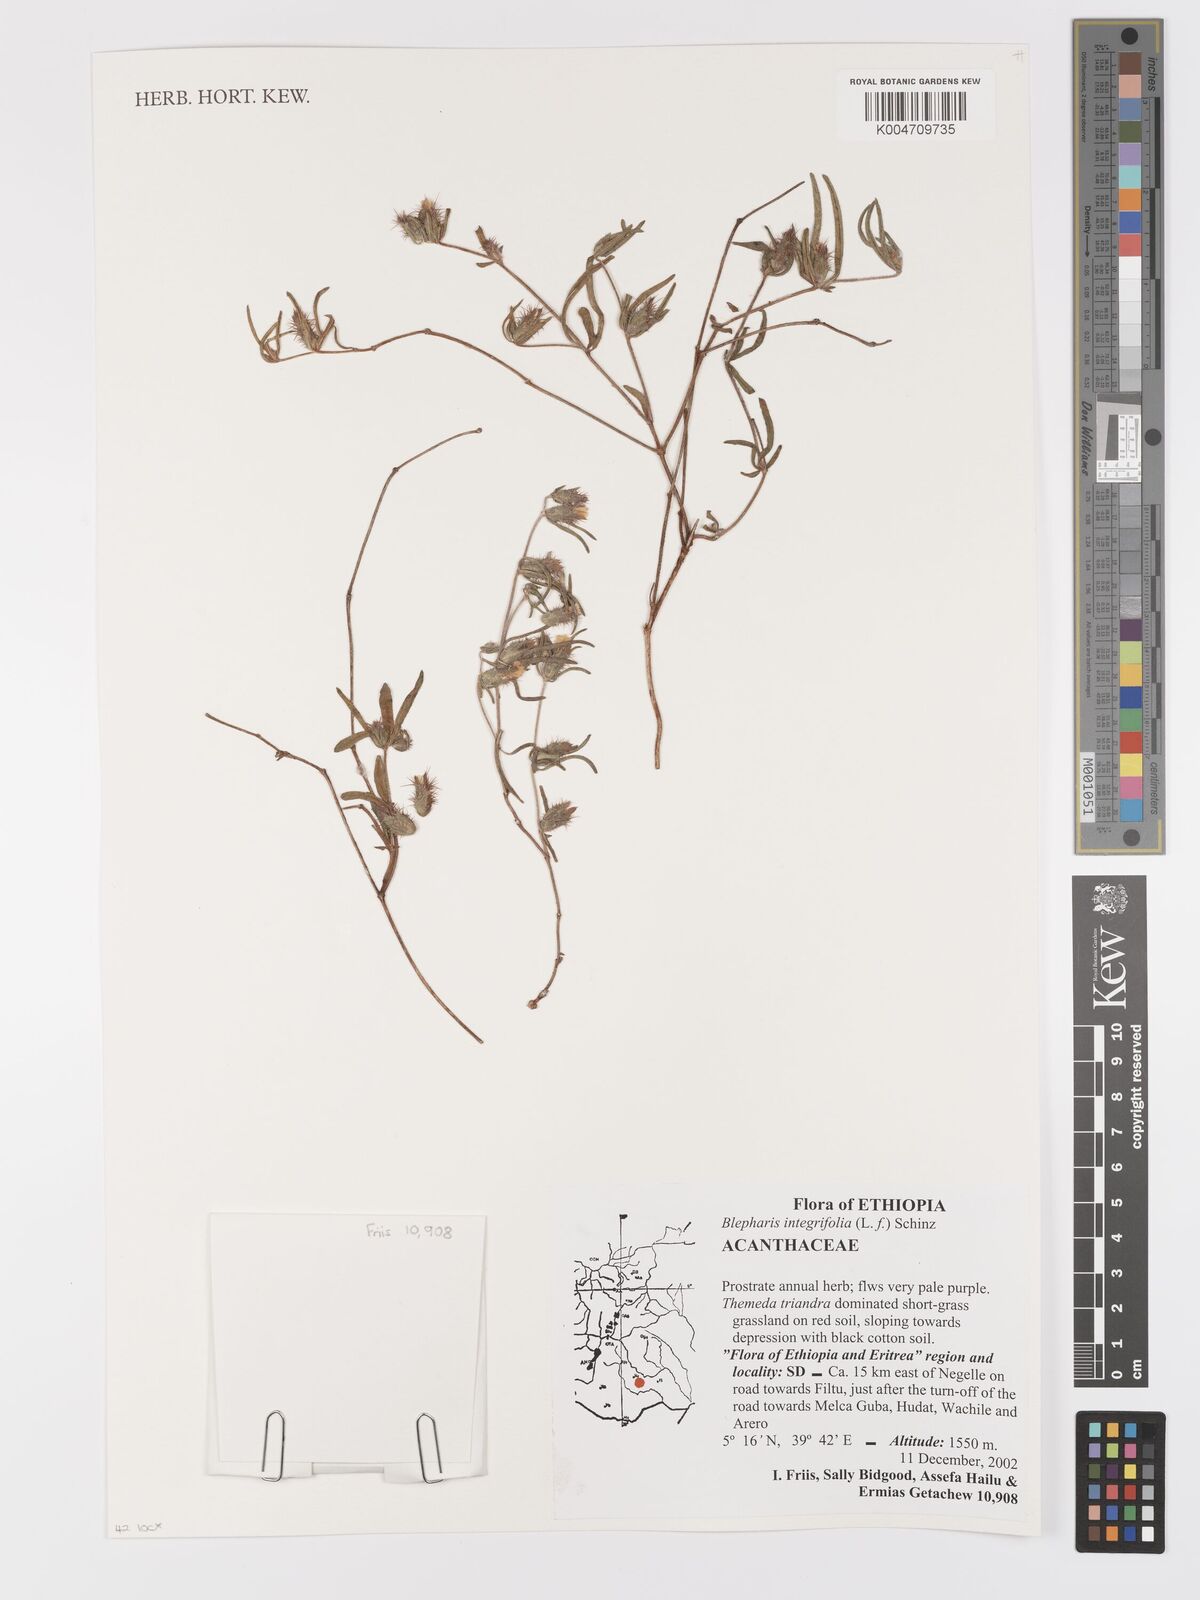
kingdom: Plantae
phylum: Tracheophyta
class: Magnoliopsida
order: Lamiales
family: Acanthaceae
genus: Blepharis
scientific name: Blepharis integrifolia
